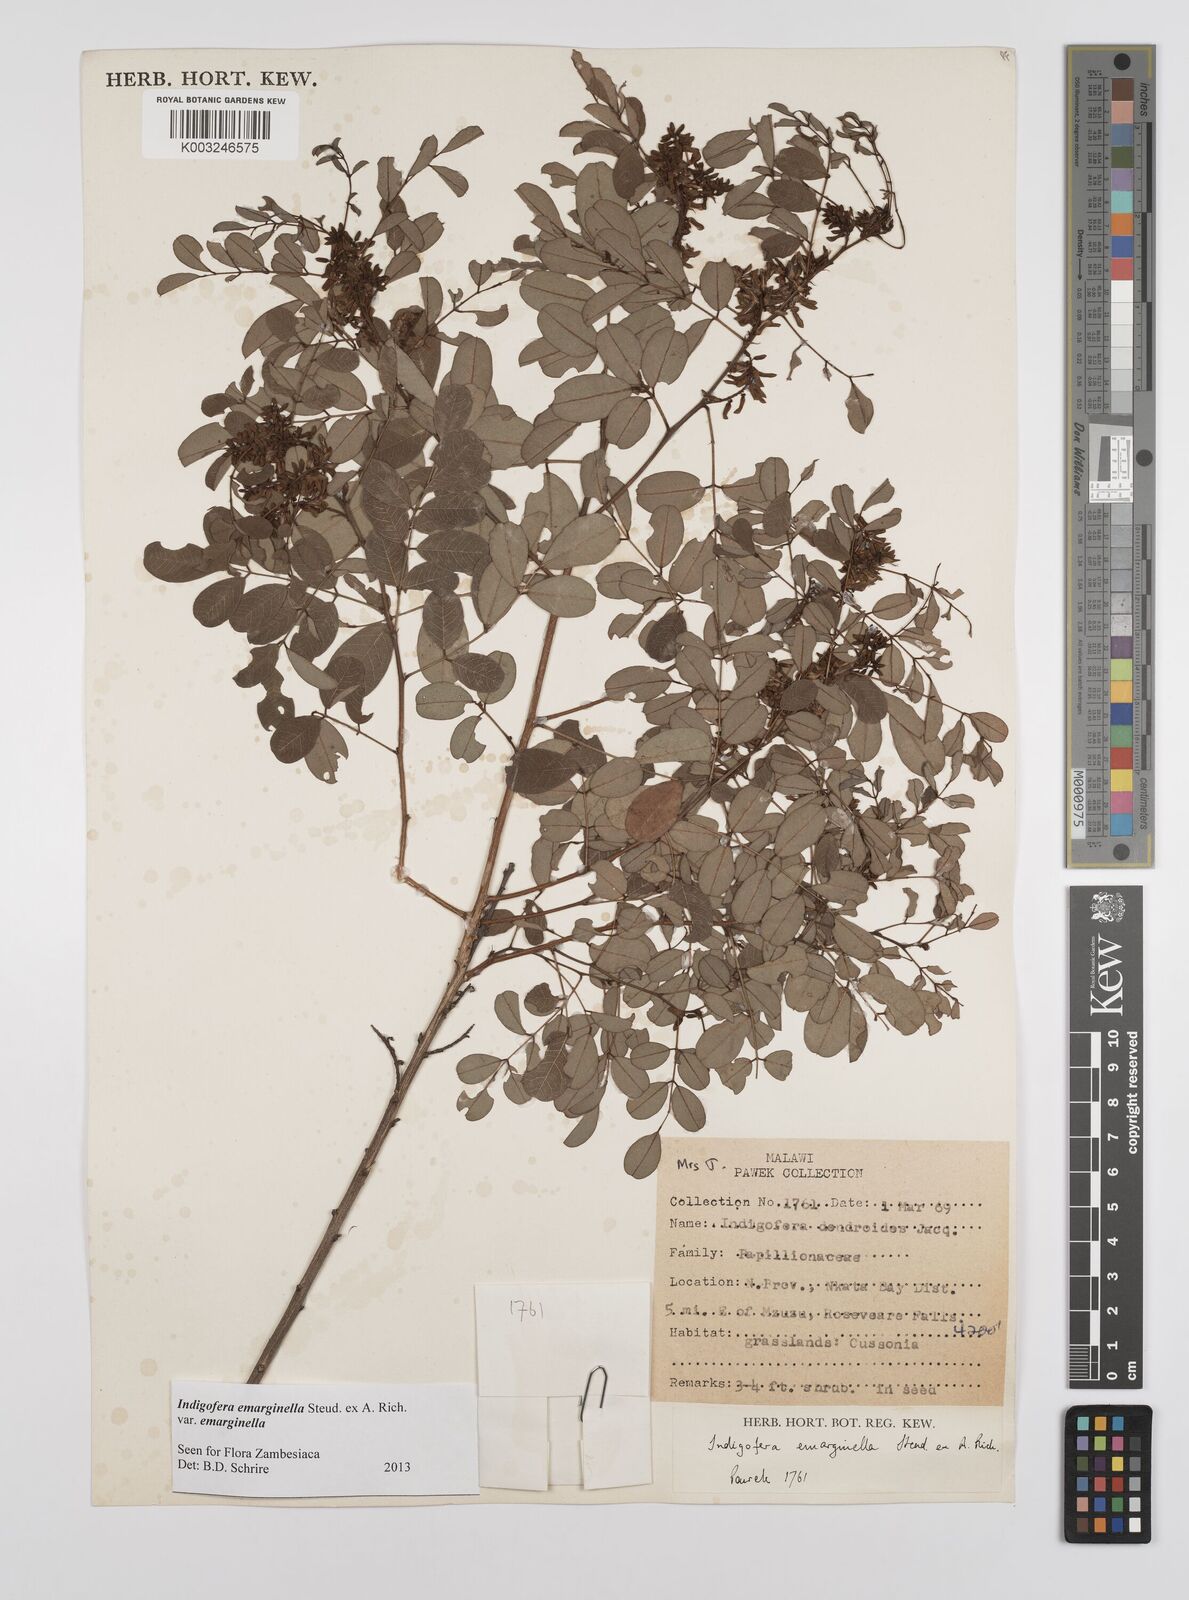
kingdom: Plantae
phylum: Tracheophyta
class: Magnoliopsida
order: Fabales
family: Fabaceae
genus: Indigofera
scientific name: Indigofera emarginella
